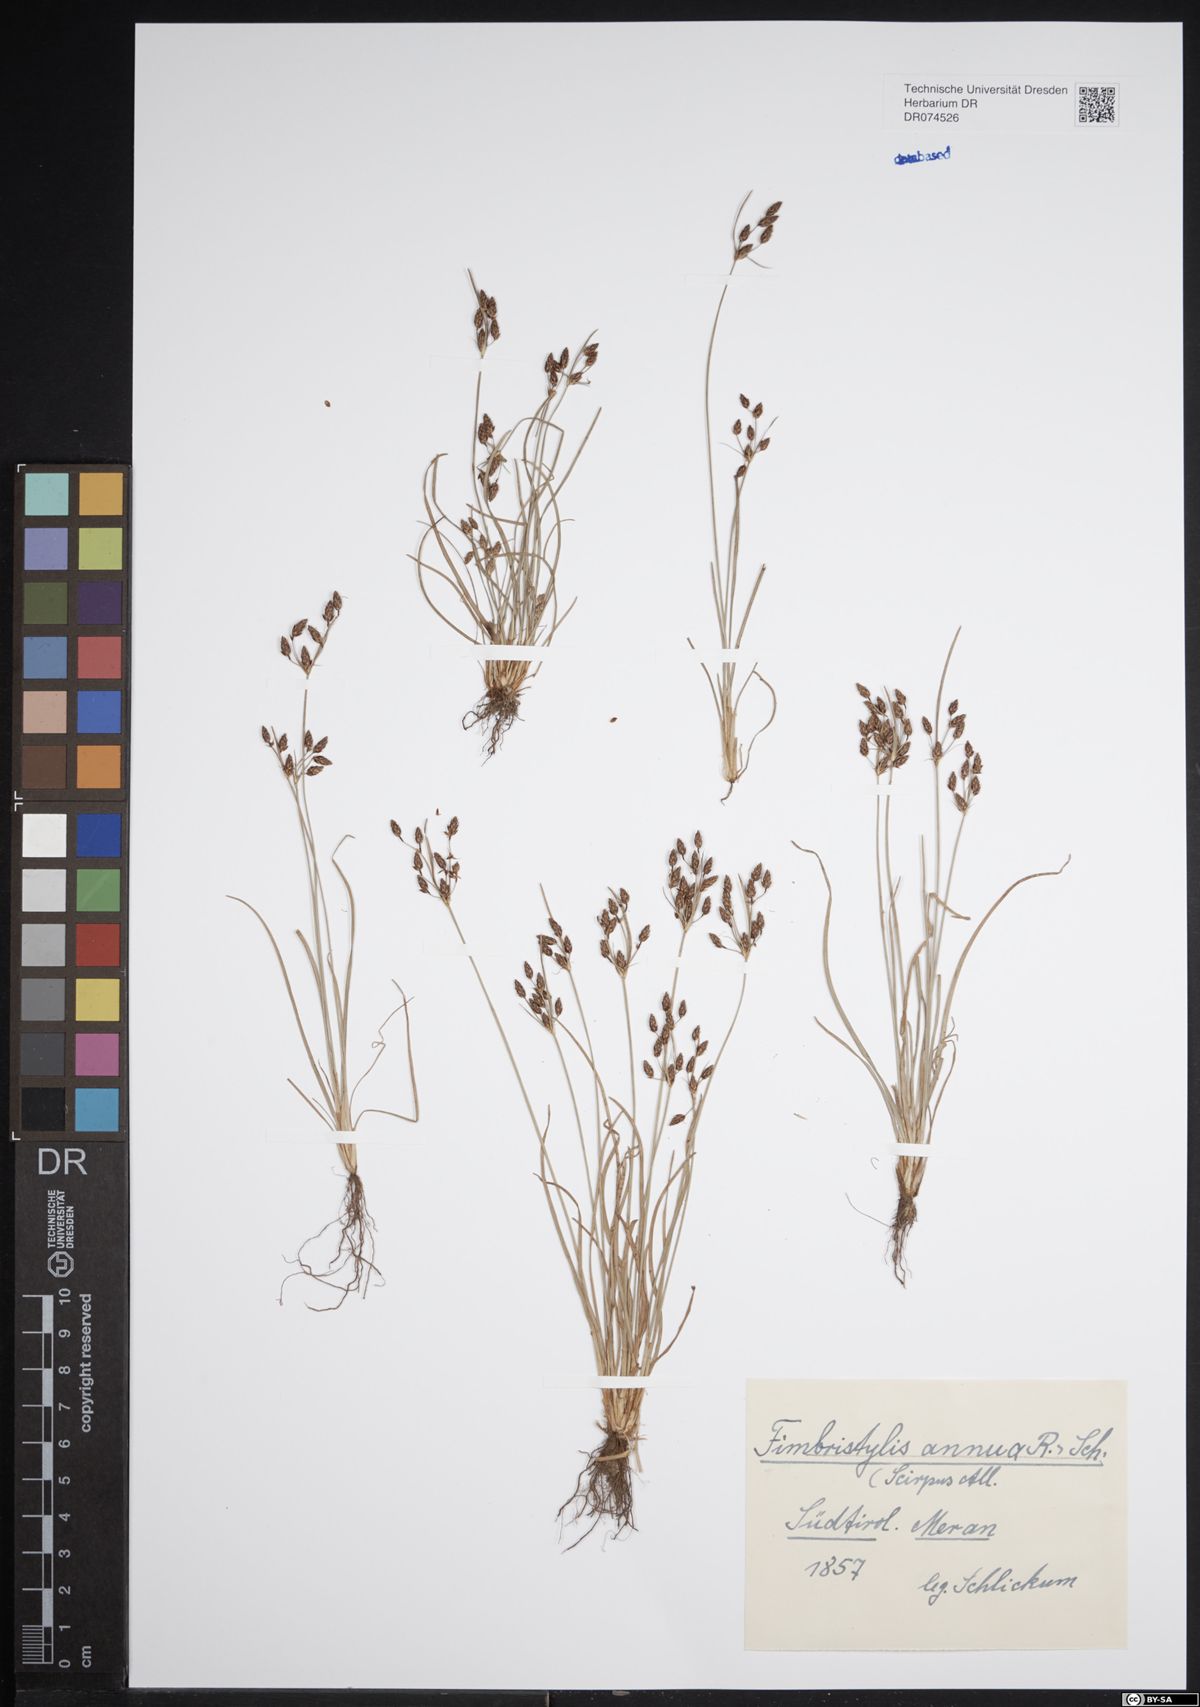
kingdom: Plantae
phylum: Tracheophyta
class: Liliopsida
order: Poales
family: Cyperaceae
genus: Fimbristylis
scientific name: Fimbristylis dichotoma
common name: Forked fimbry
